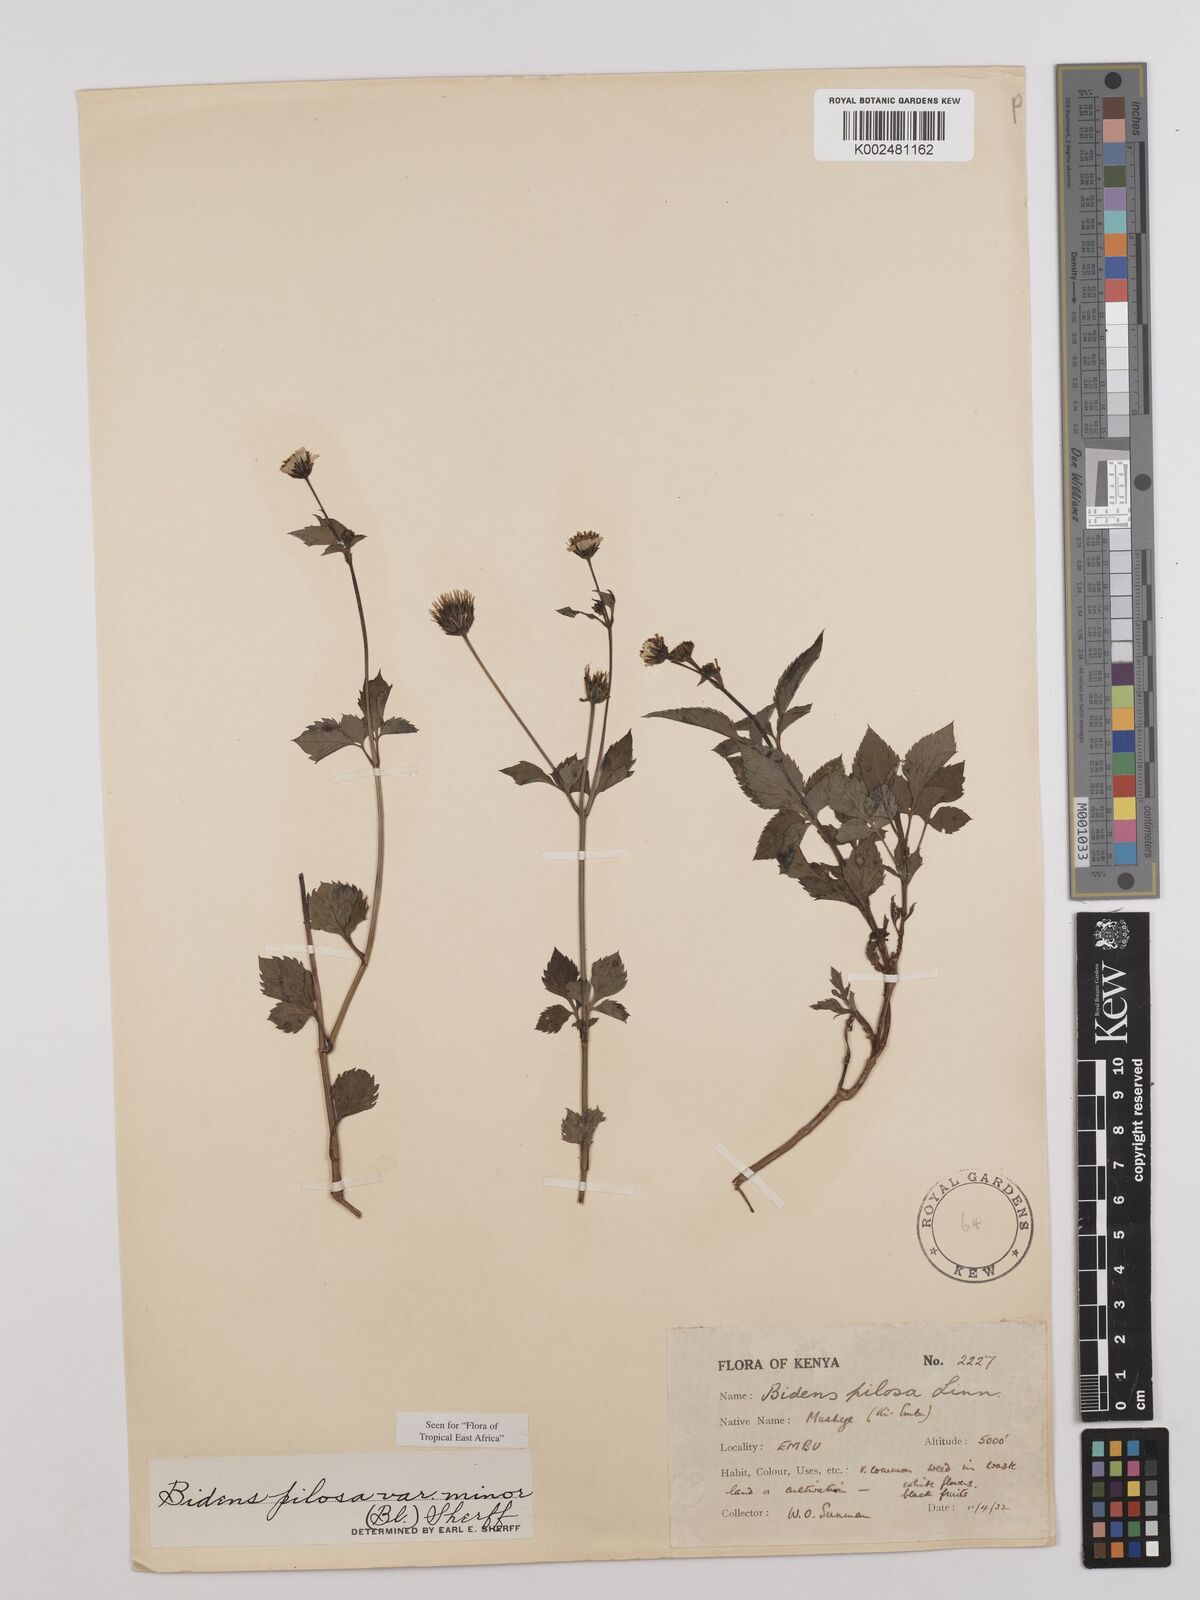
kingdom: Plantae
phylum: Tracheophyta
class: Magnoliopsida
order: Asterales
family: Asteraceae
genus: Bidens
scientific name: Bidens pilosa
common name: Black-jack
